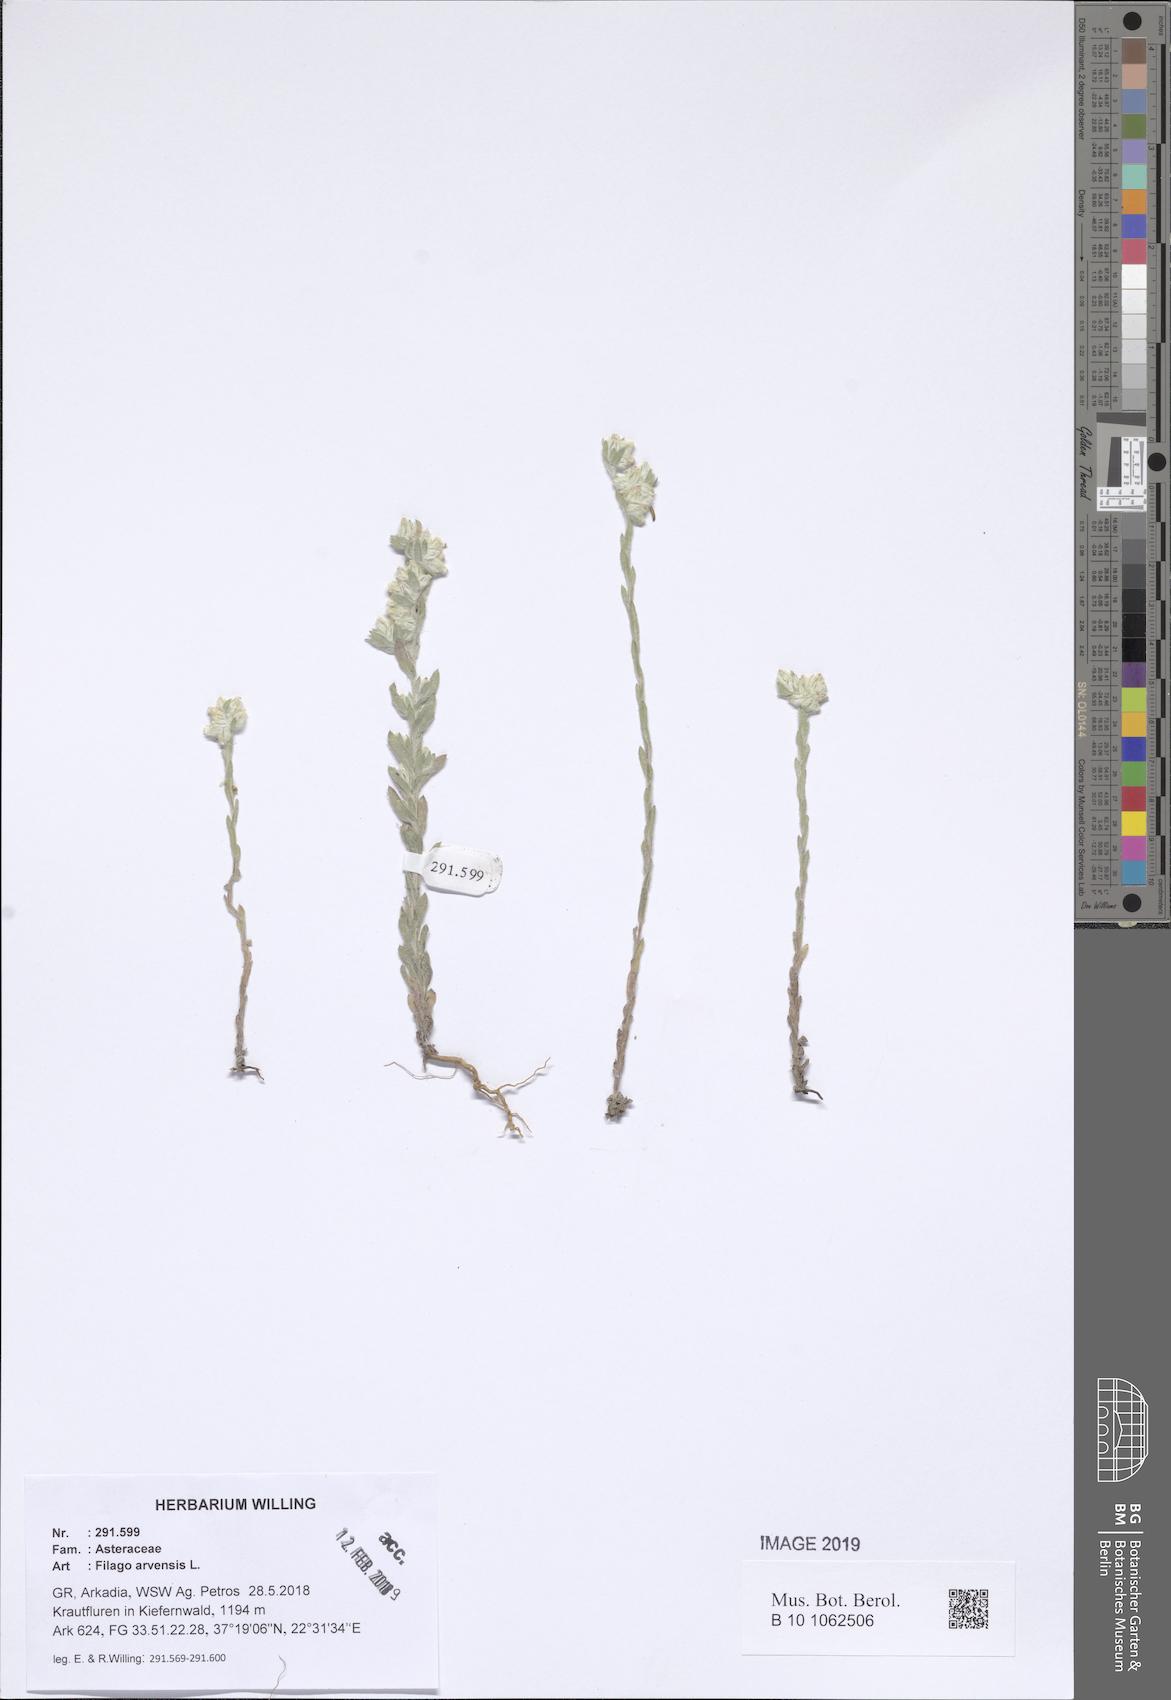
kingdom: Plantae
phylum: Tracheophyta
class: Magnoliopsida
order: Asterales
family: Asteraceae
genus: Filago
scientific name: Filago arvensis
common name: Field cudweed
